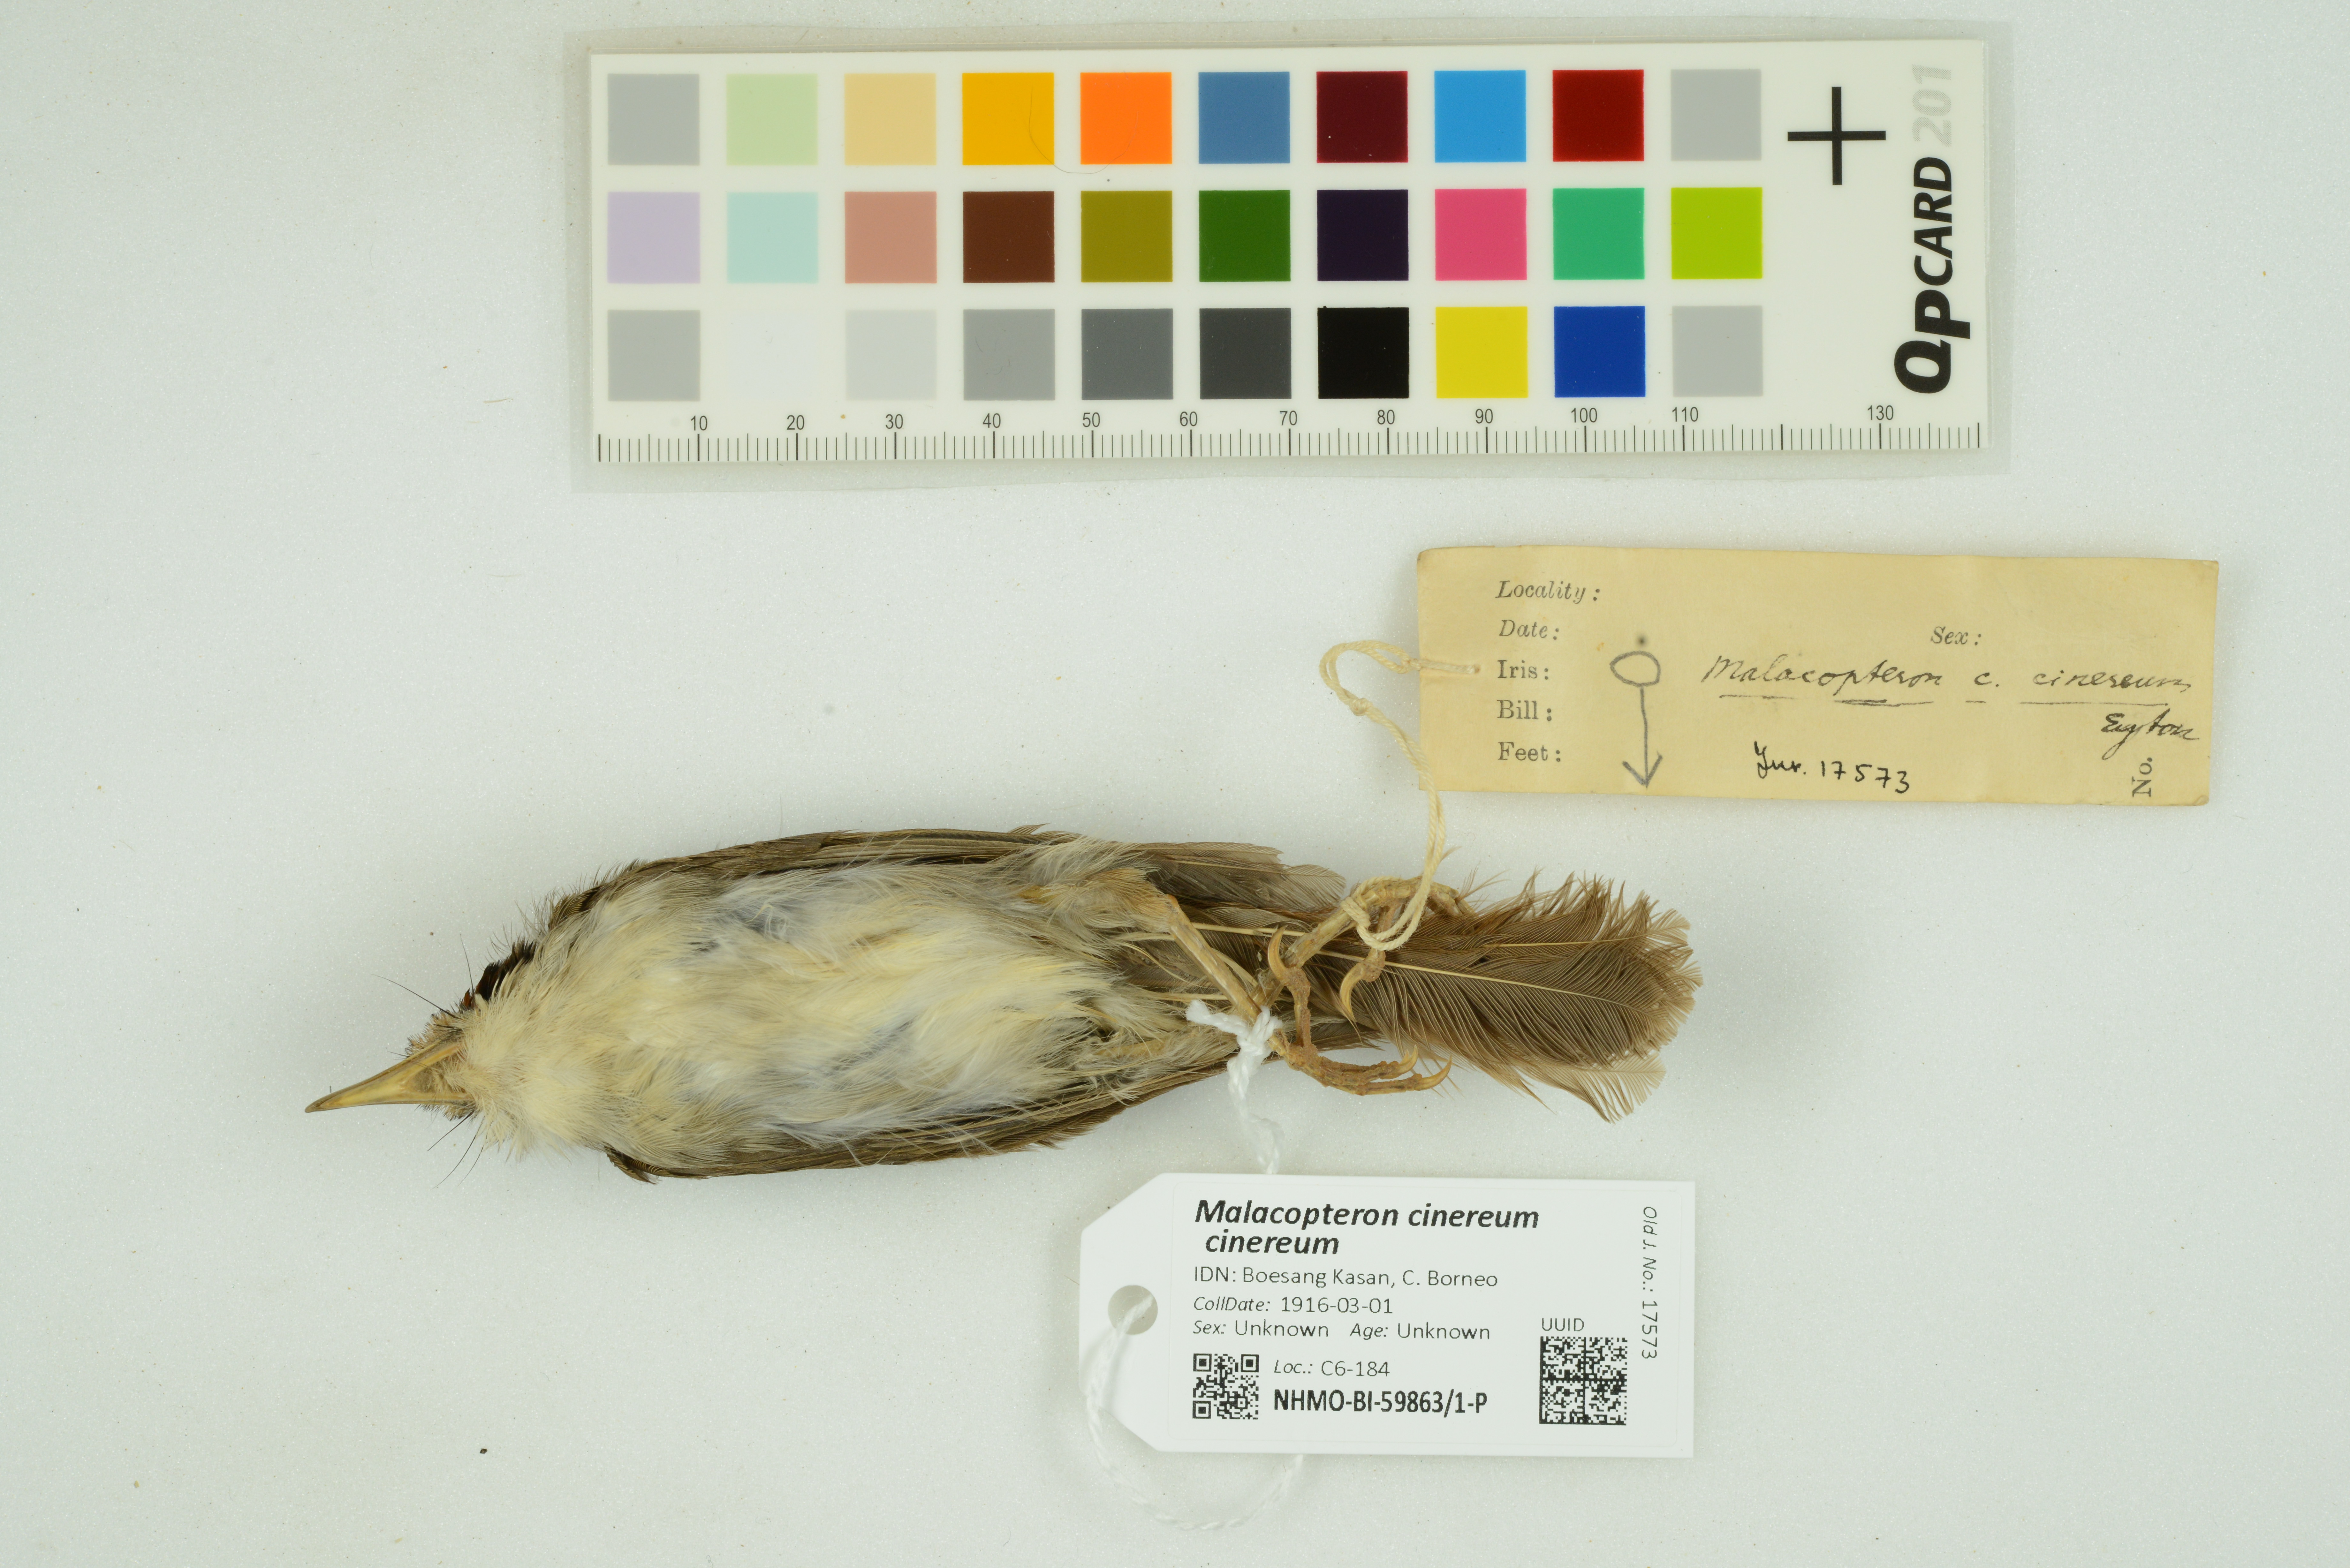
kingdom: Animalia
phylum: Chordata
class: Aves
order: Passeriformes
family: Pellorneidae
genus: Malacopteron
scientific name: Malacopteron cinereum
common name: Scaly-crowned babbler
